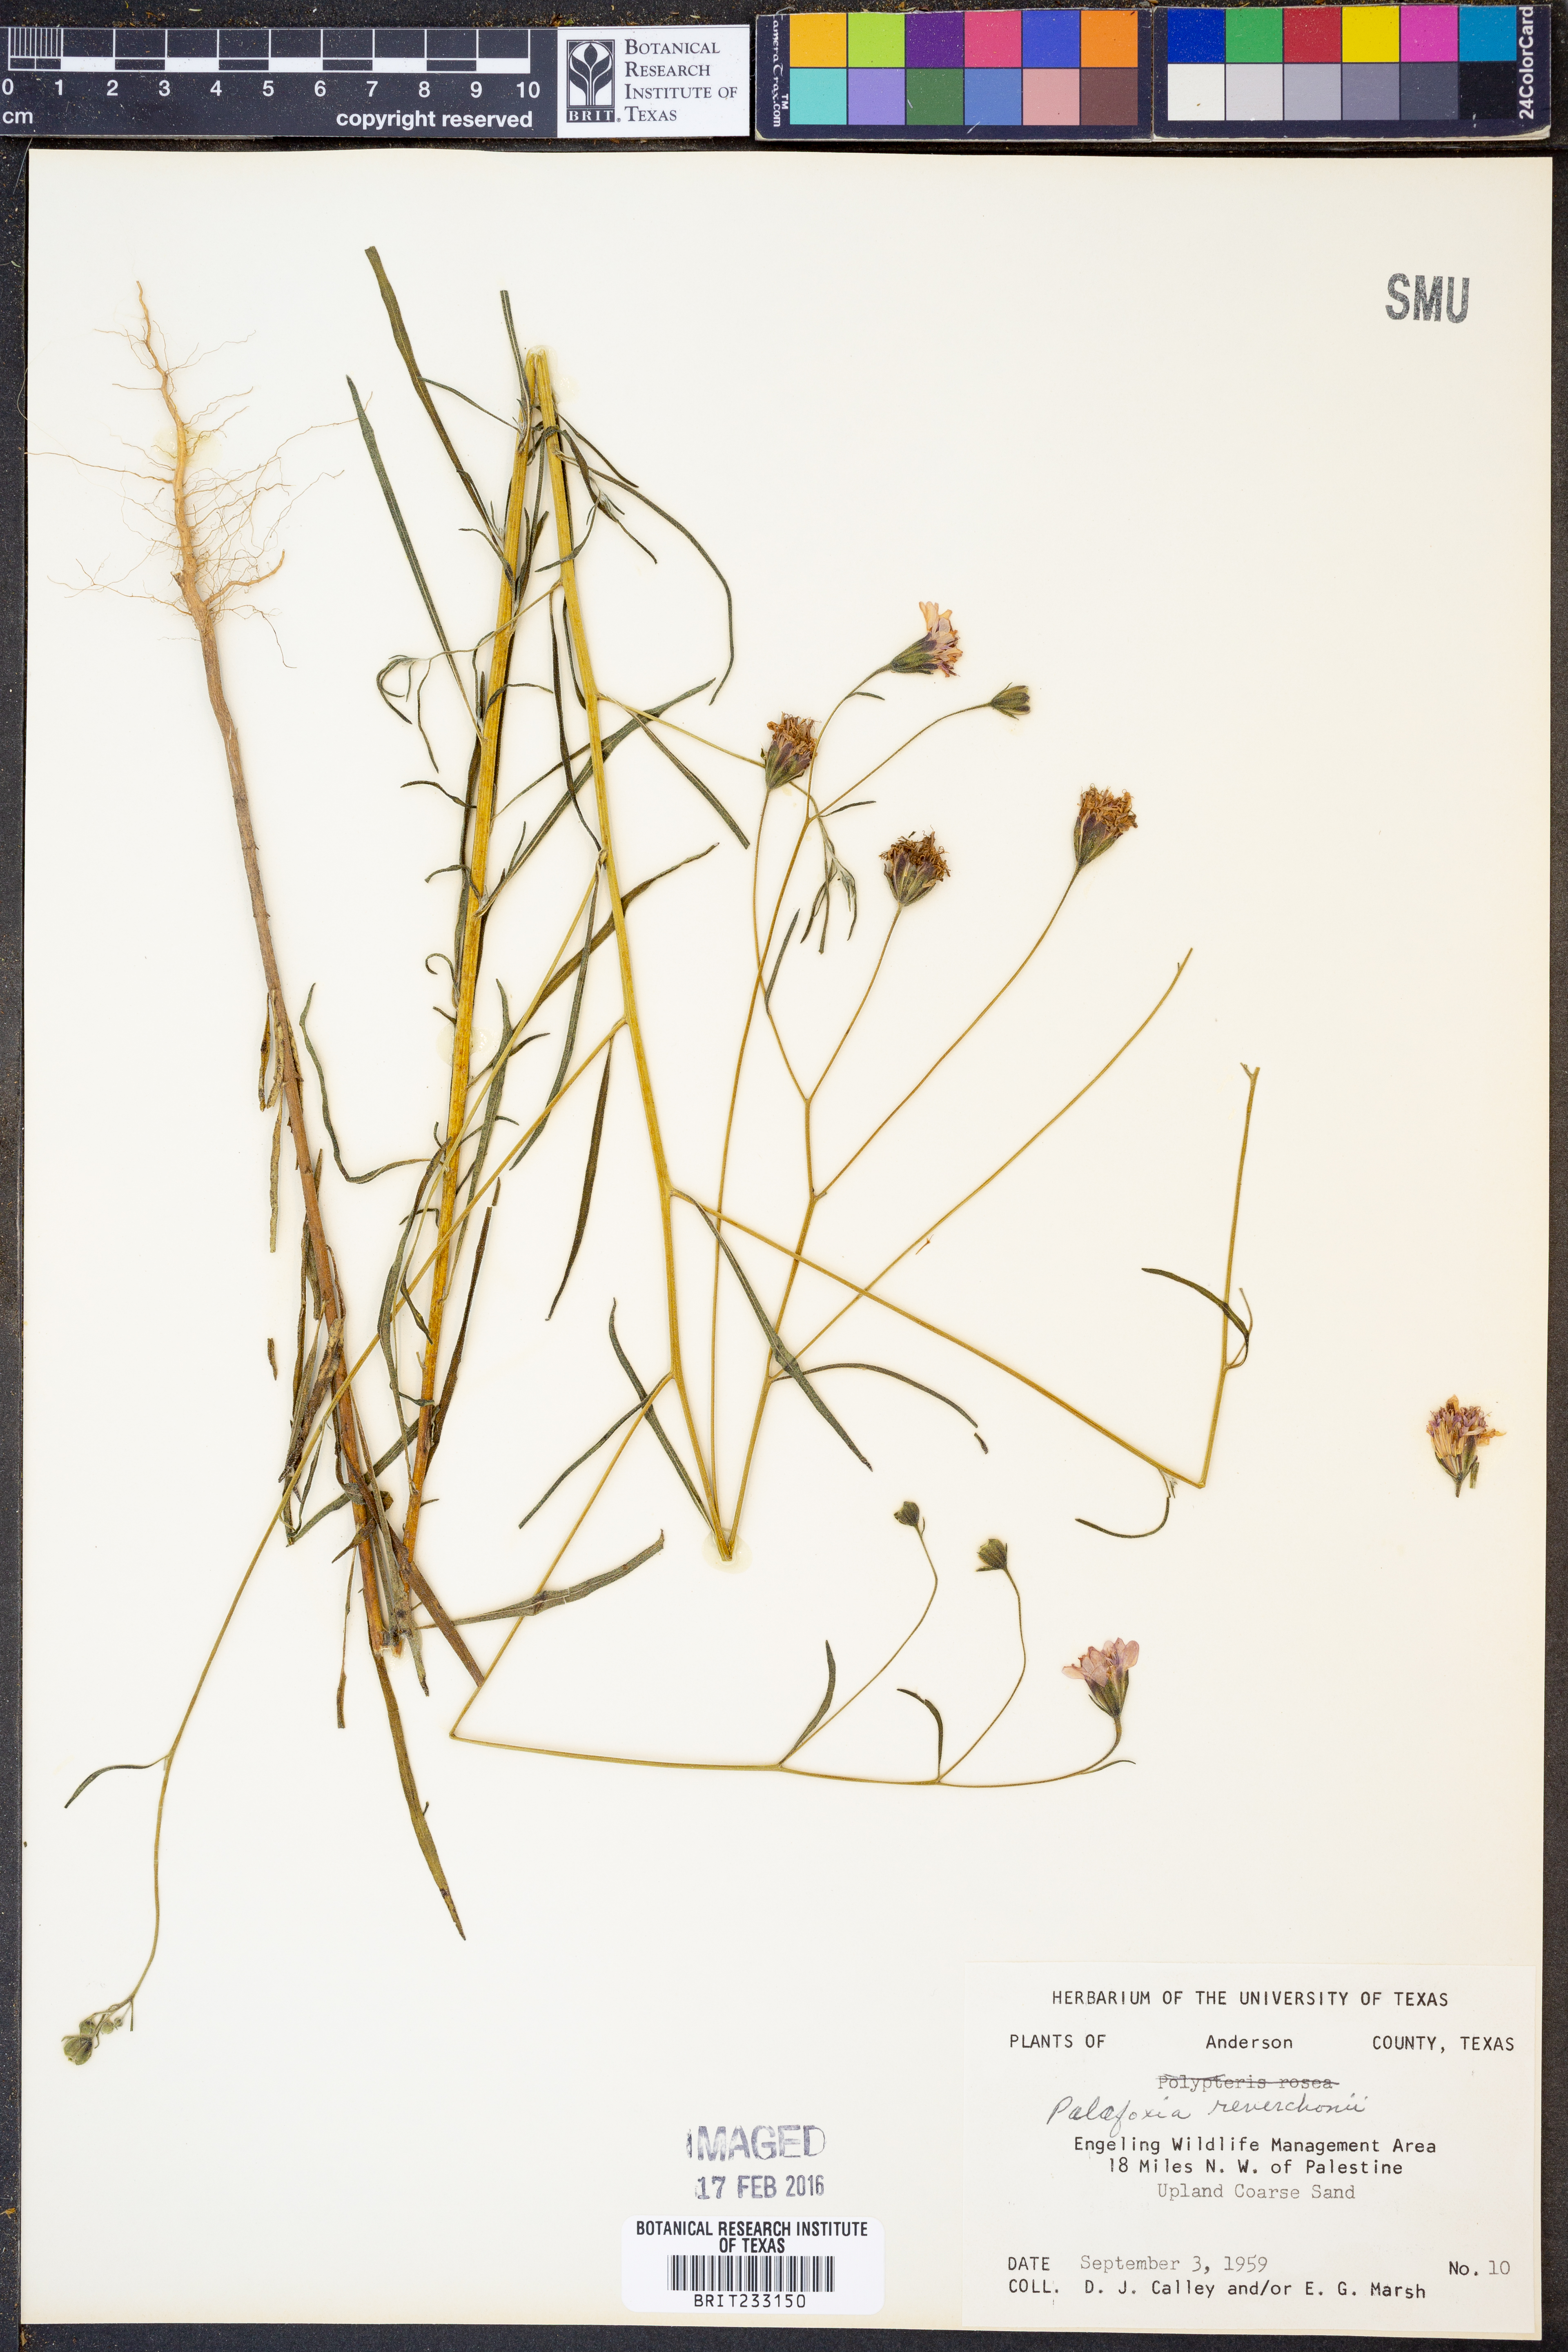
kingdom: Plantae
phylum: Tracheophyta
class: Magnoliopsida
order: Asterales
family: Asteraceae
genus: Palafoxia
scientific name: Palafoxia reverchonii
